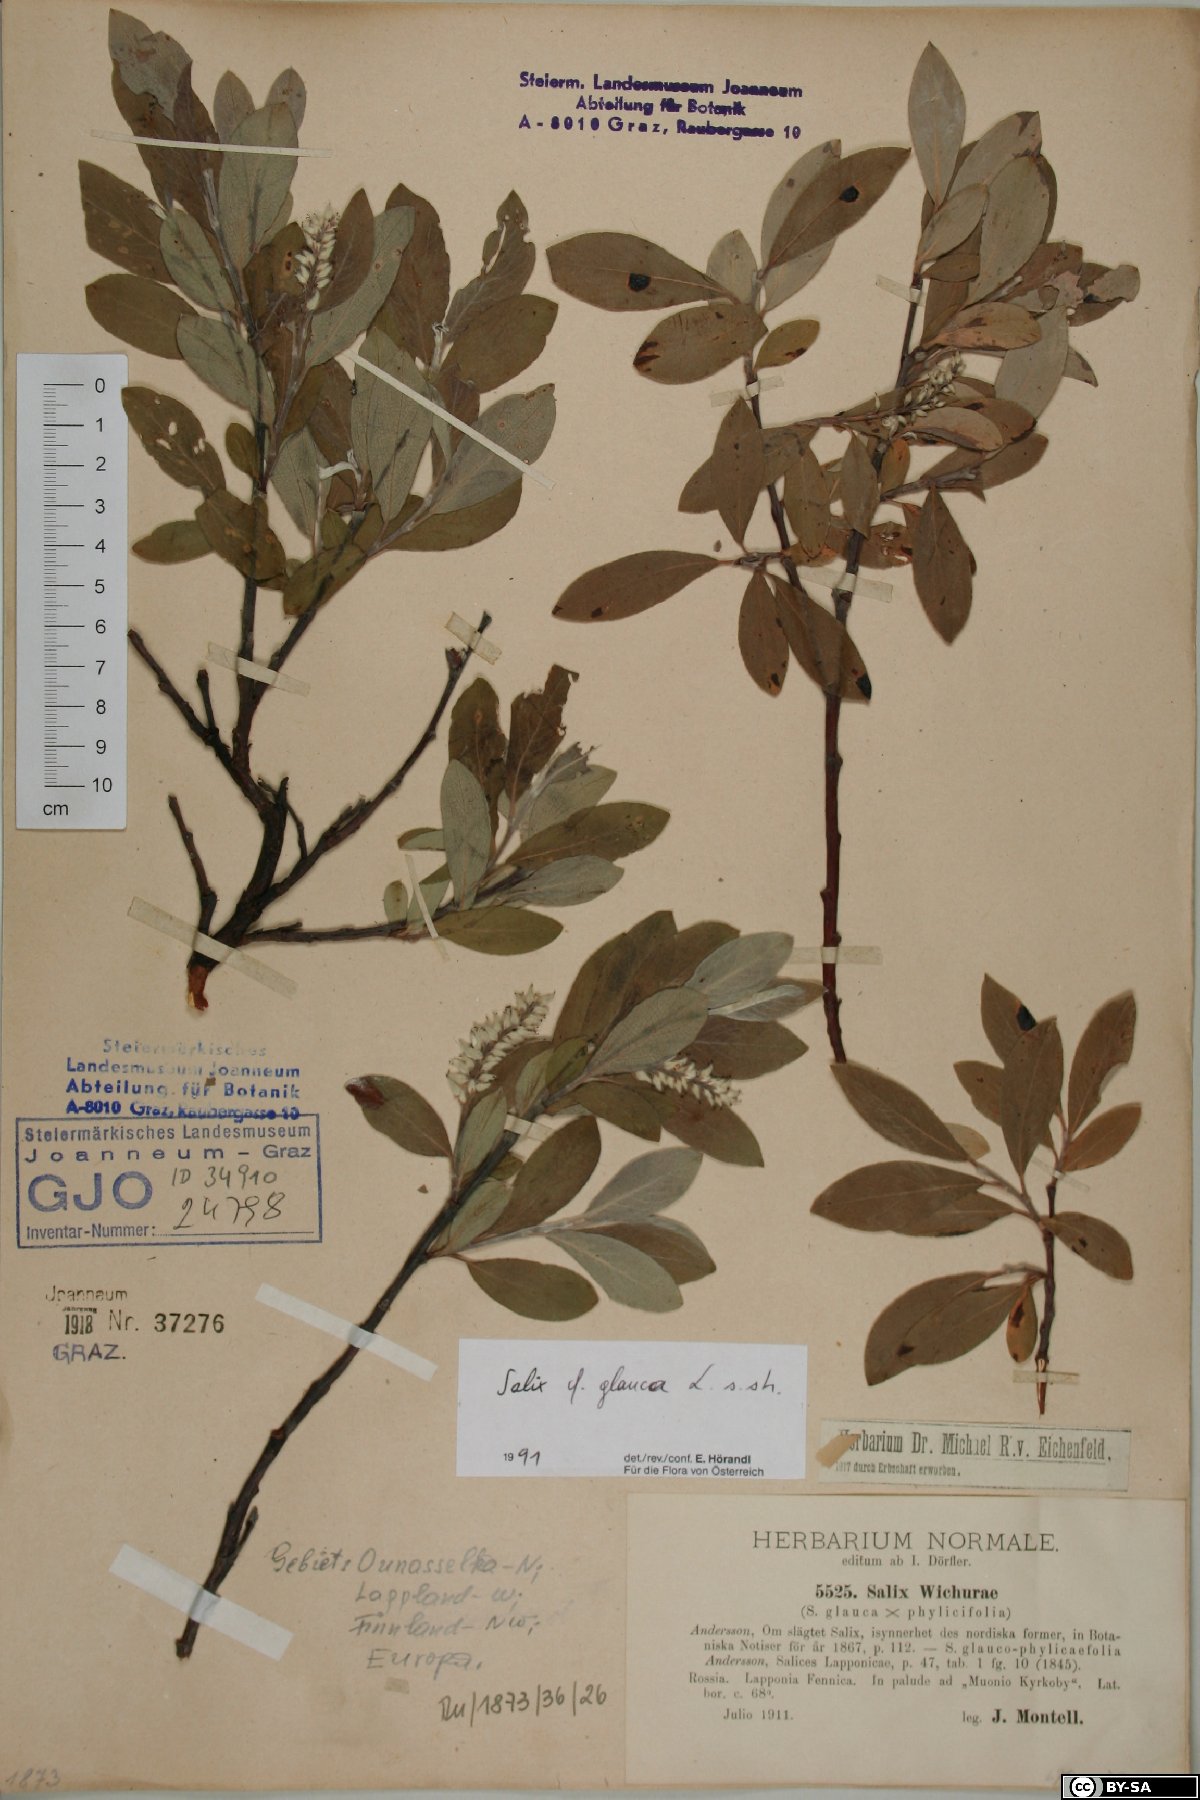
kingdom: Plantae
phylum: Tracheophyta
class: Magnoliopsida
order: Malpighiales
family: Salicaceae
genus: Salix
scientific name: Salix glauca
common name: Glaucous willow
